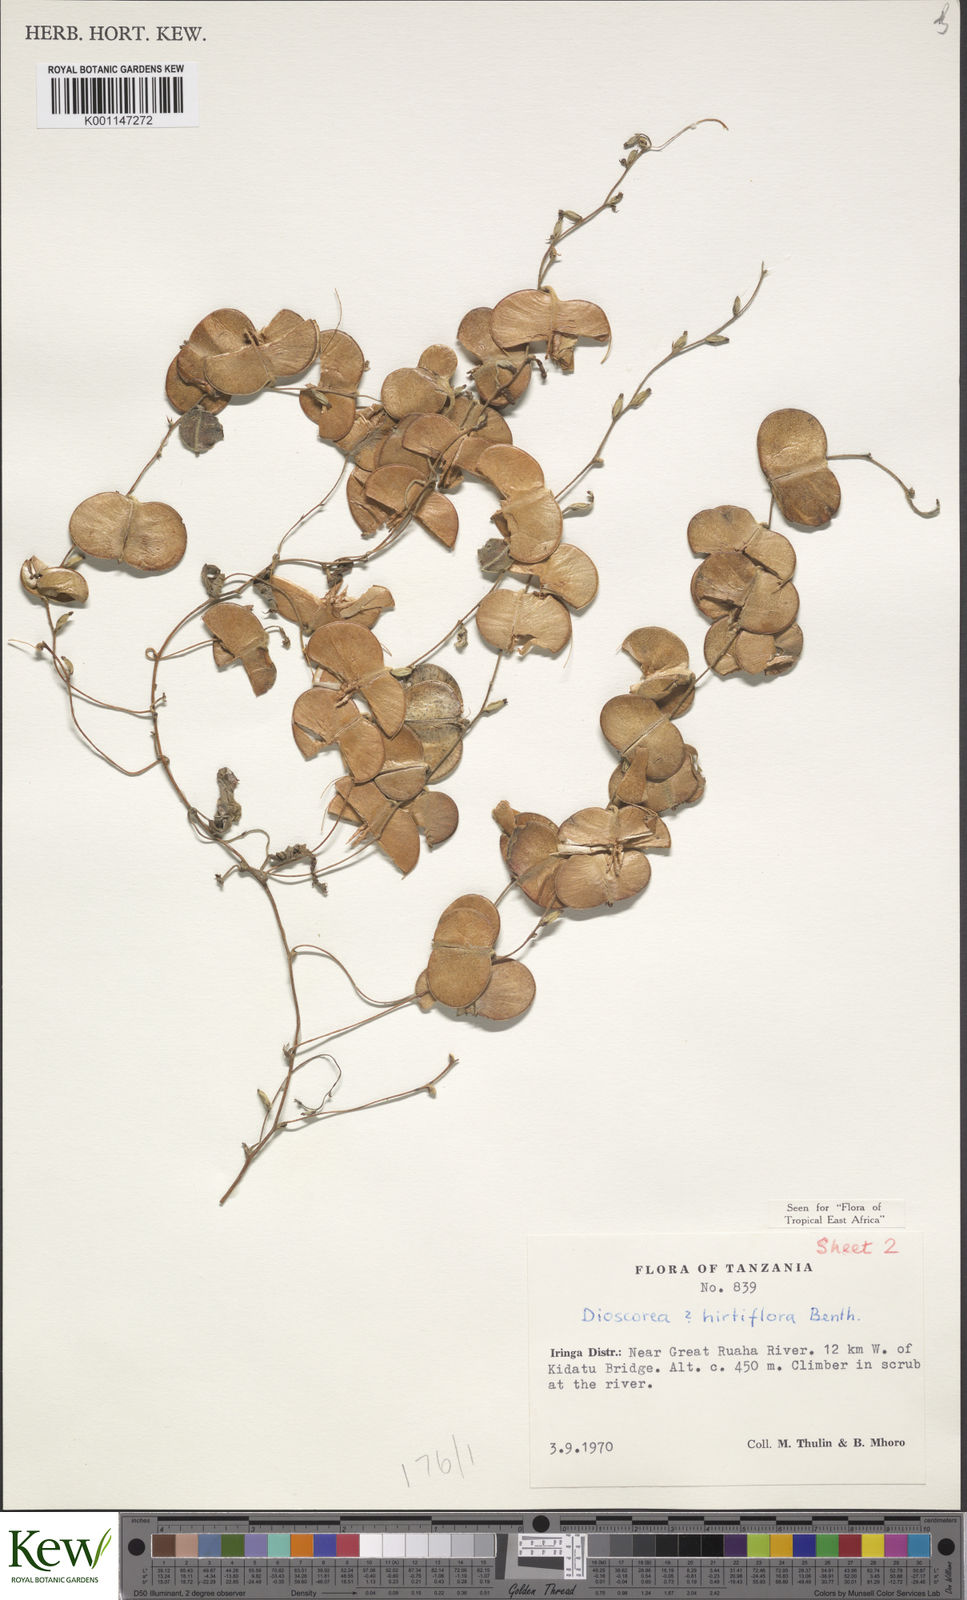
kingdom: Plantae
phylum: Tracheophyta
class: Liliopsida
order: Dioscoreales
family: Dioscoreaceae
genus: Dioscorea
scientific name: Dioscorea hirtiflora
